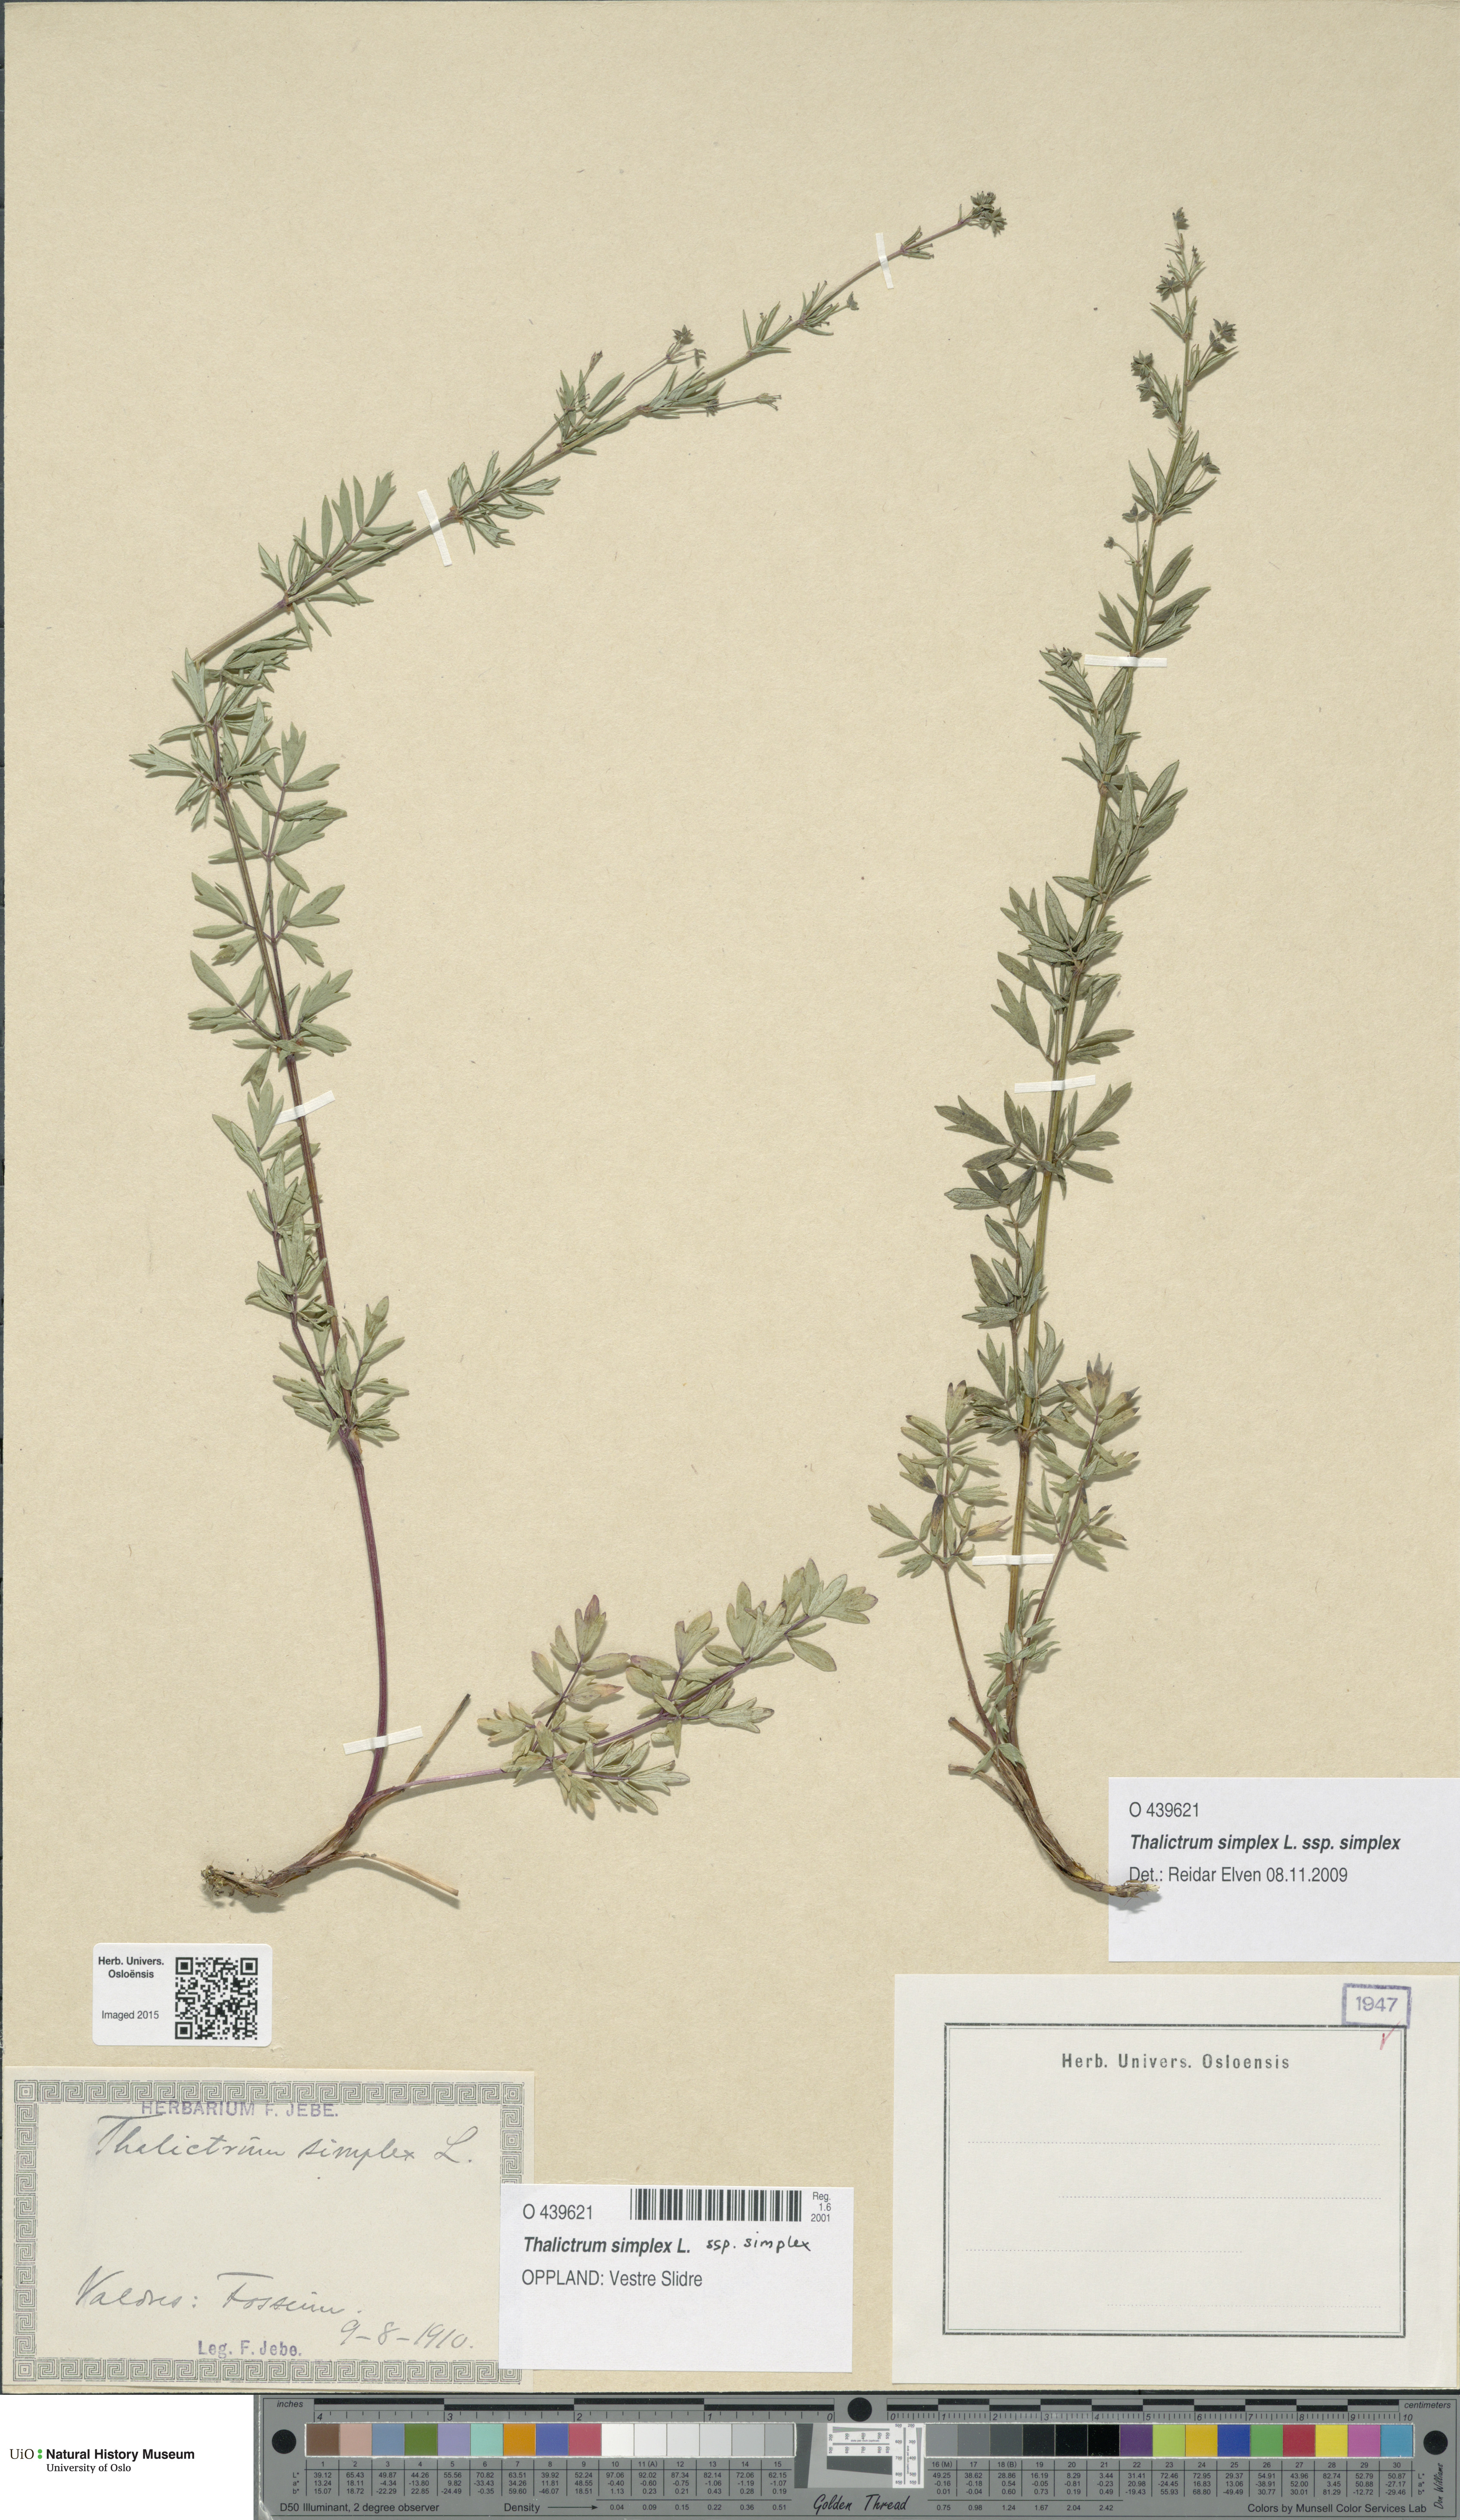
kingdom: Plantae
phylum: Tracheophyta
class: Magnoliopsida
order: Ranunculales
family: Ranunculaceae
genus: Thalictrum
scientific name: Thalictrum simplex
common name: Small meadow-rue
